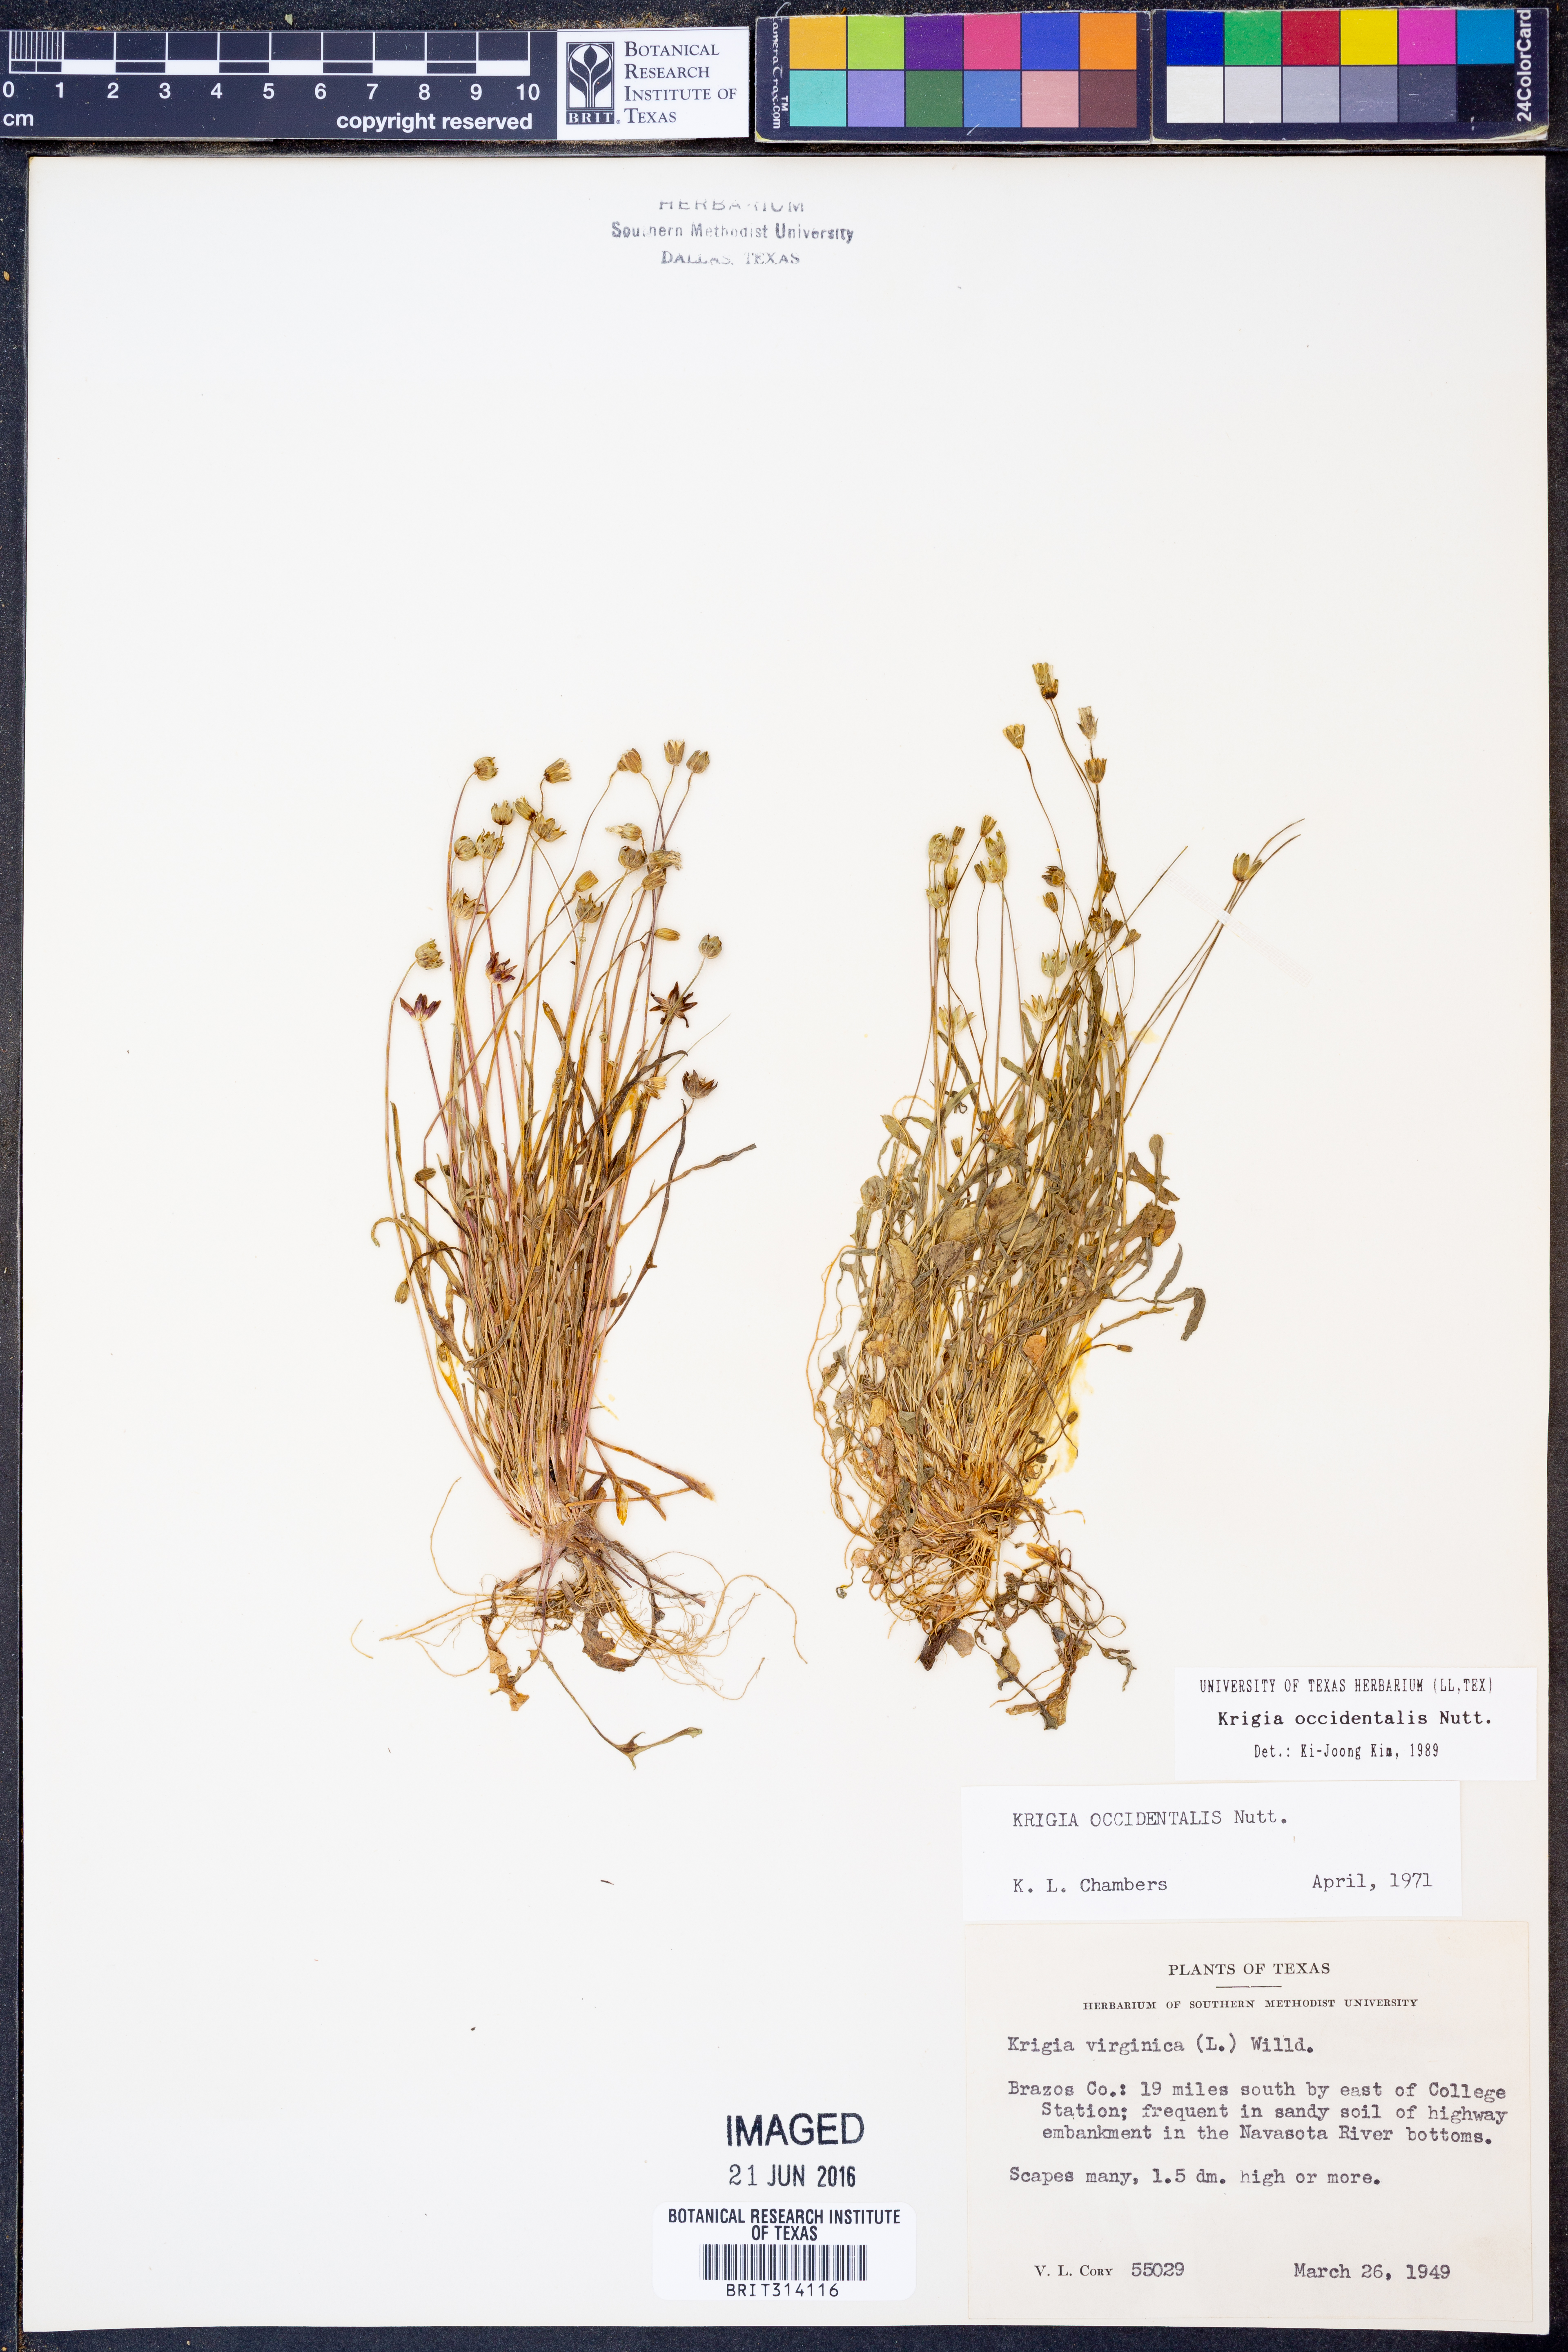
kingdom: Plantae
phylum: Tracheophyta
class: Magnoliopsida
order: Asterales
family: Asteraceae
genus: Krigia
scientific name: Krigia occidentalis
